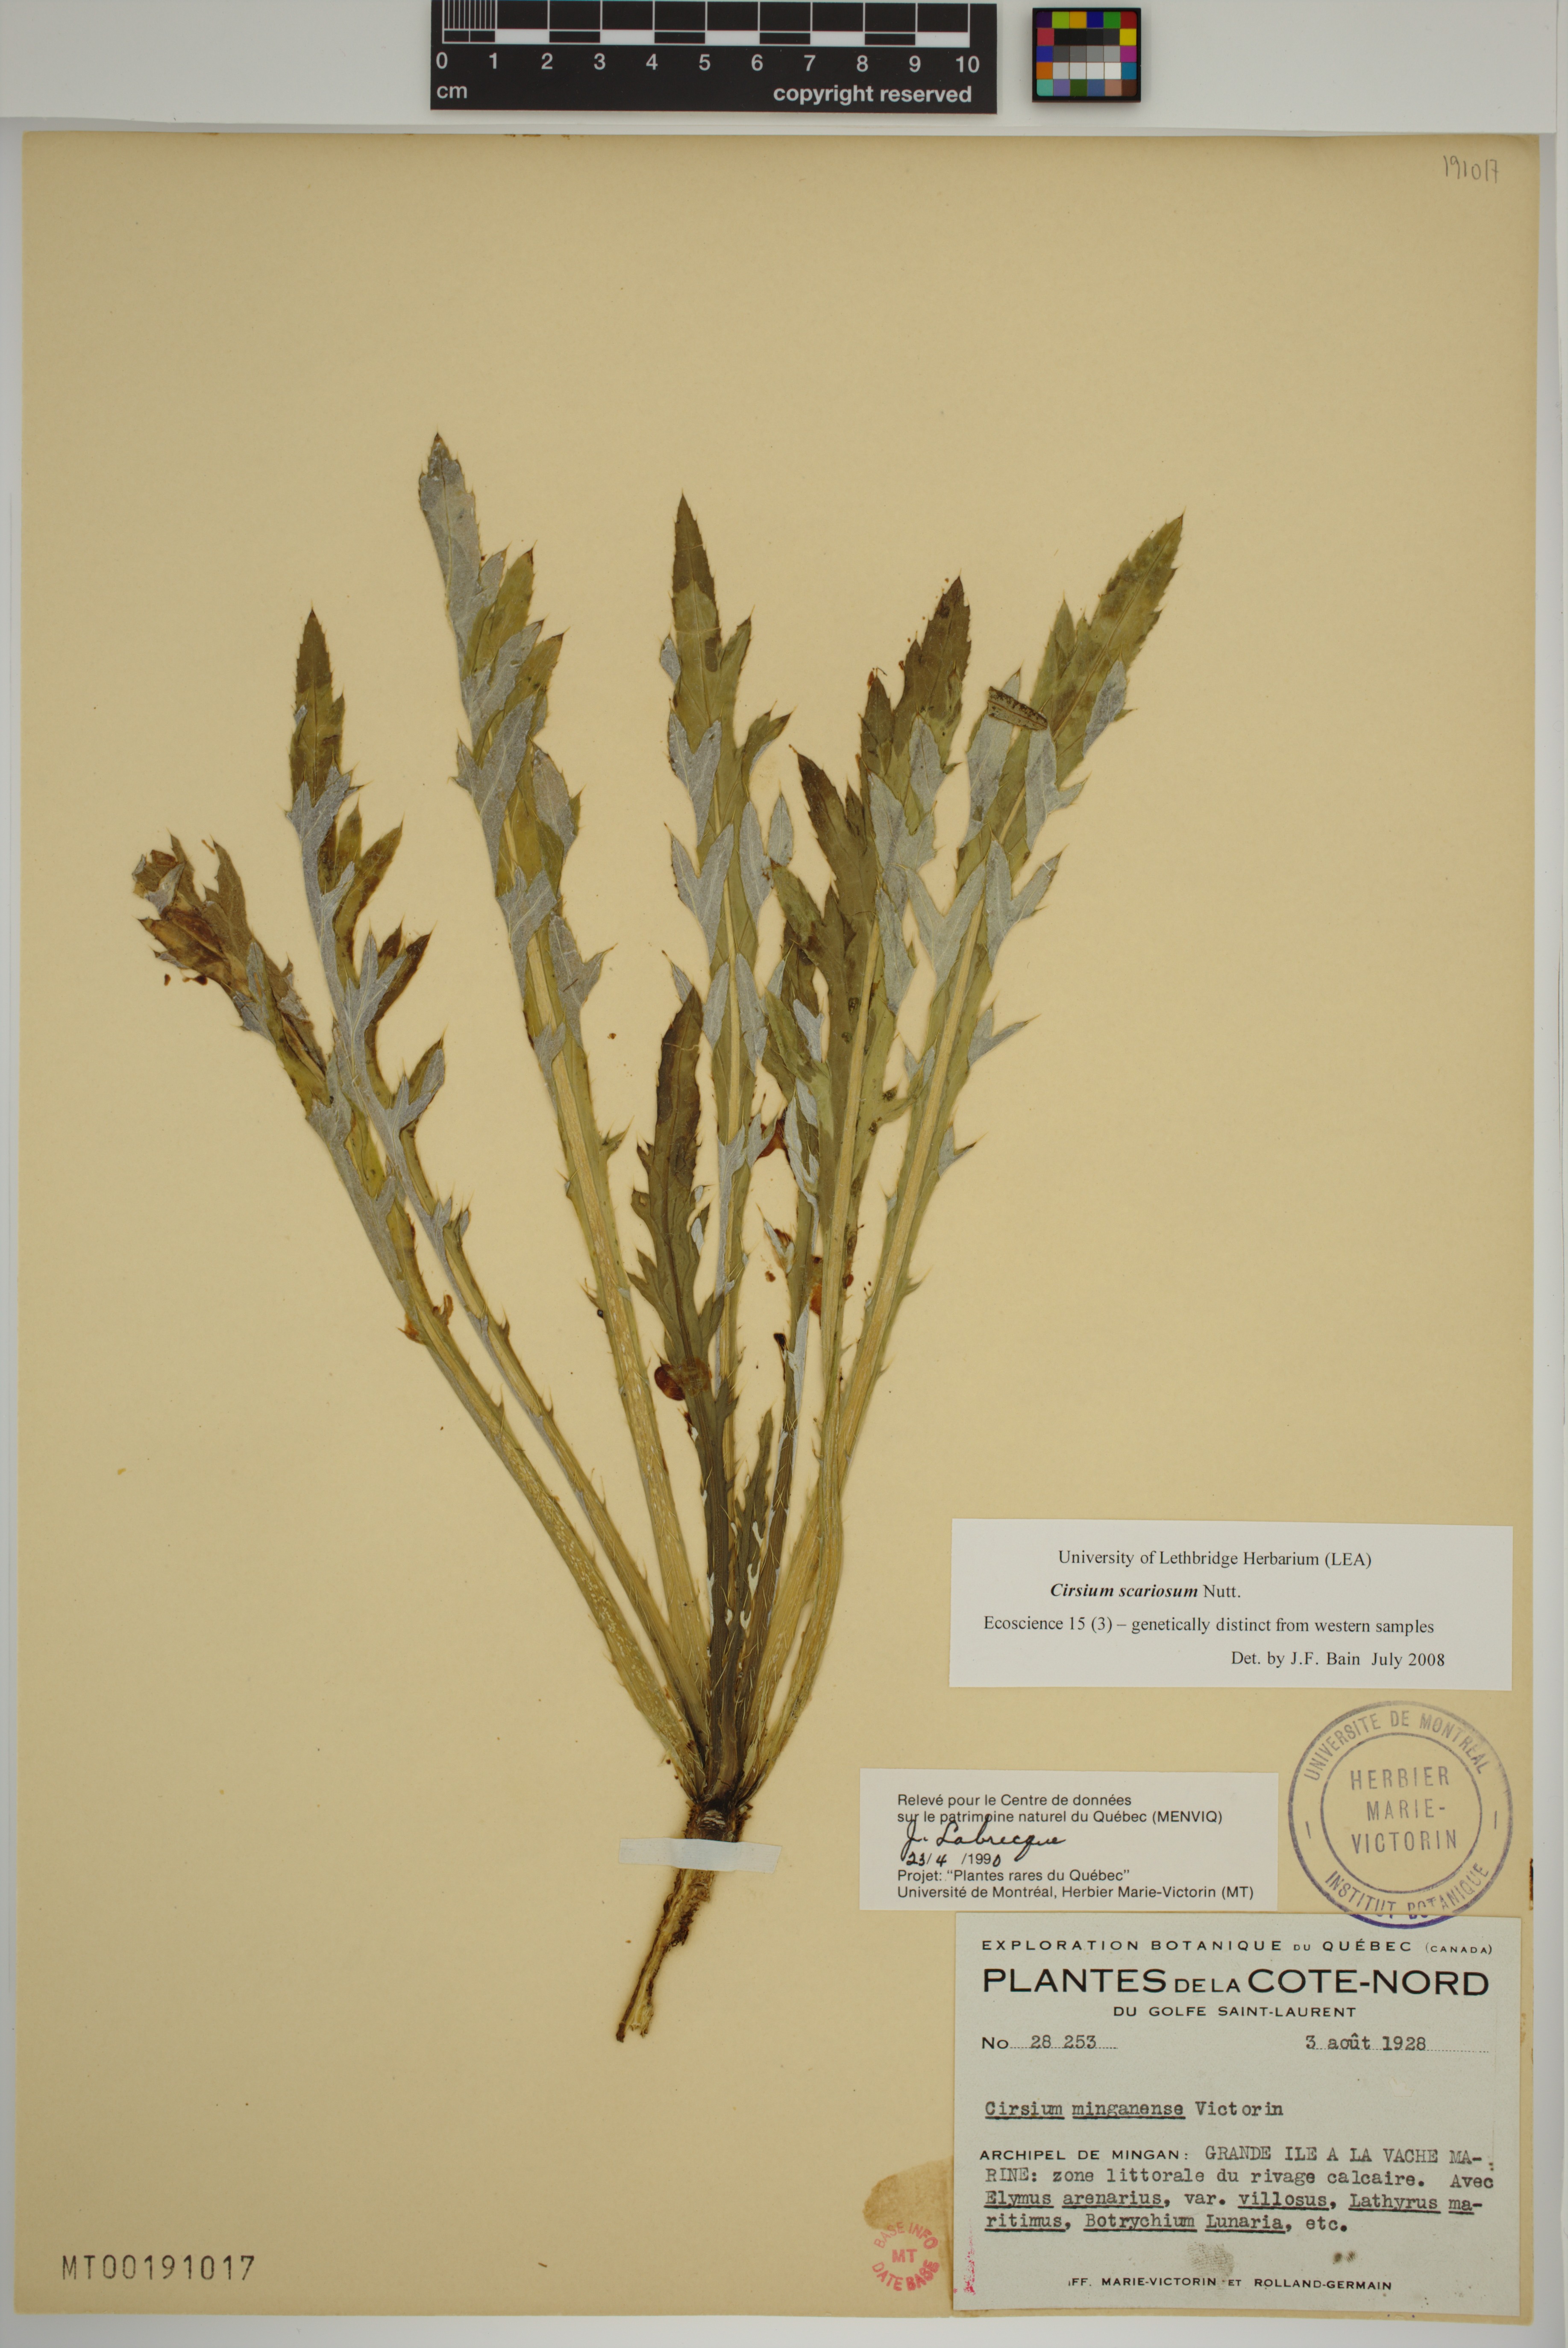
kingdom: Plantae
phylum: Tracheophyta
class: Magnoliopsida
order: Asterales
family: Asteraceae
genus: Cirsium
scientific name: Cirsium scariosum
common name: Meadow thistle
